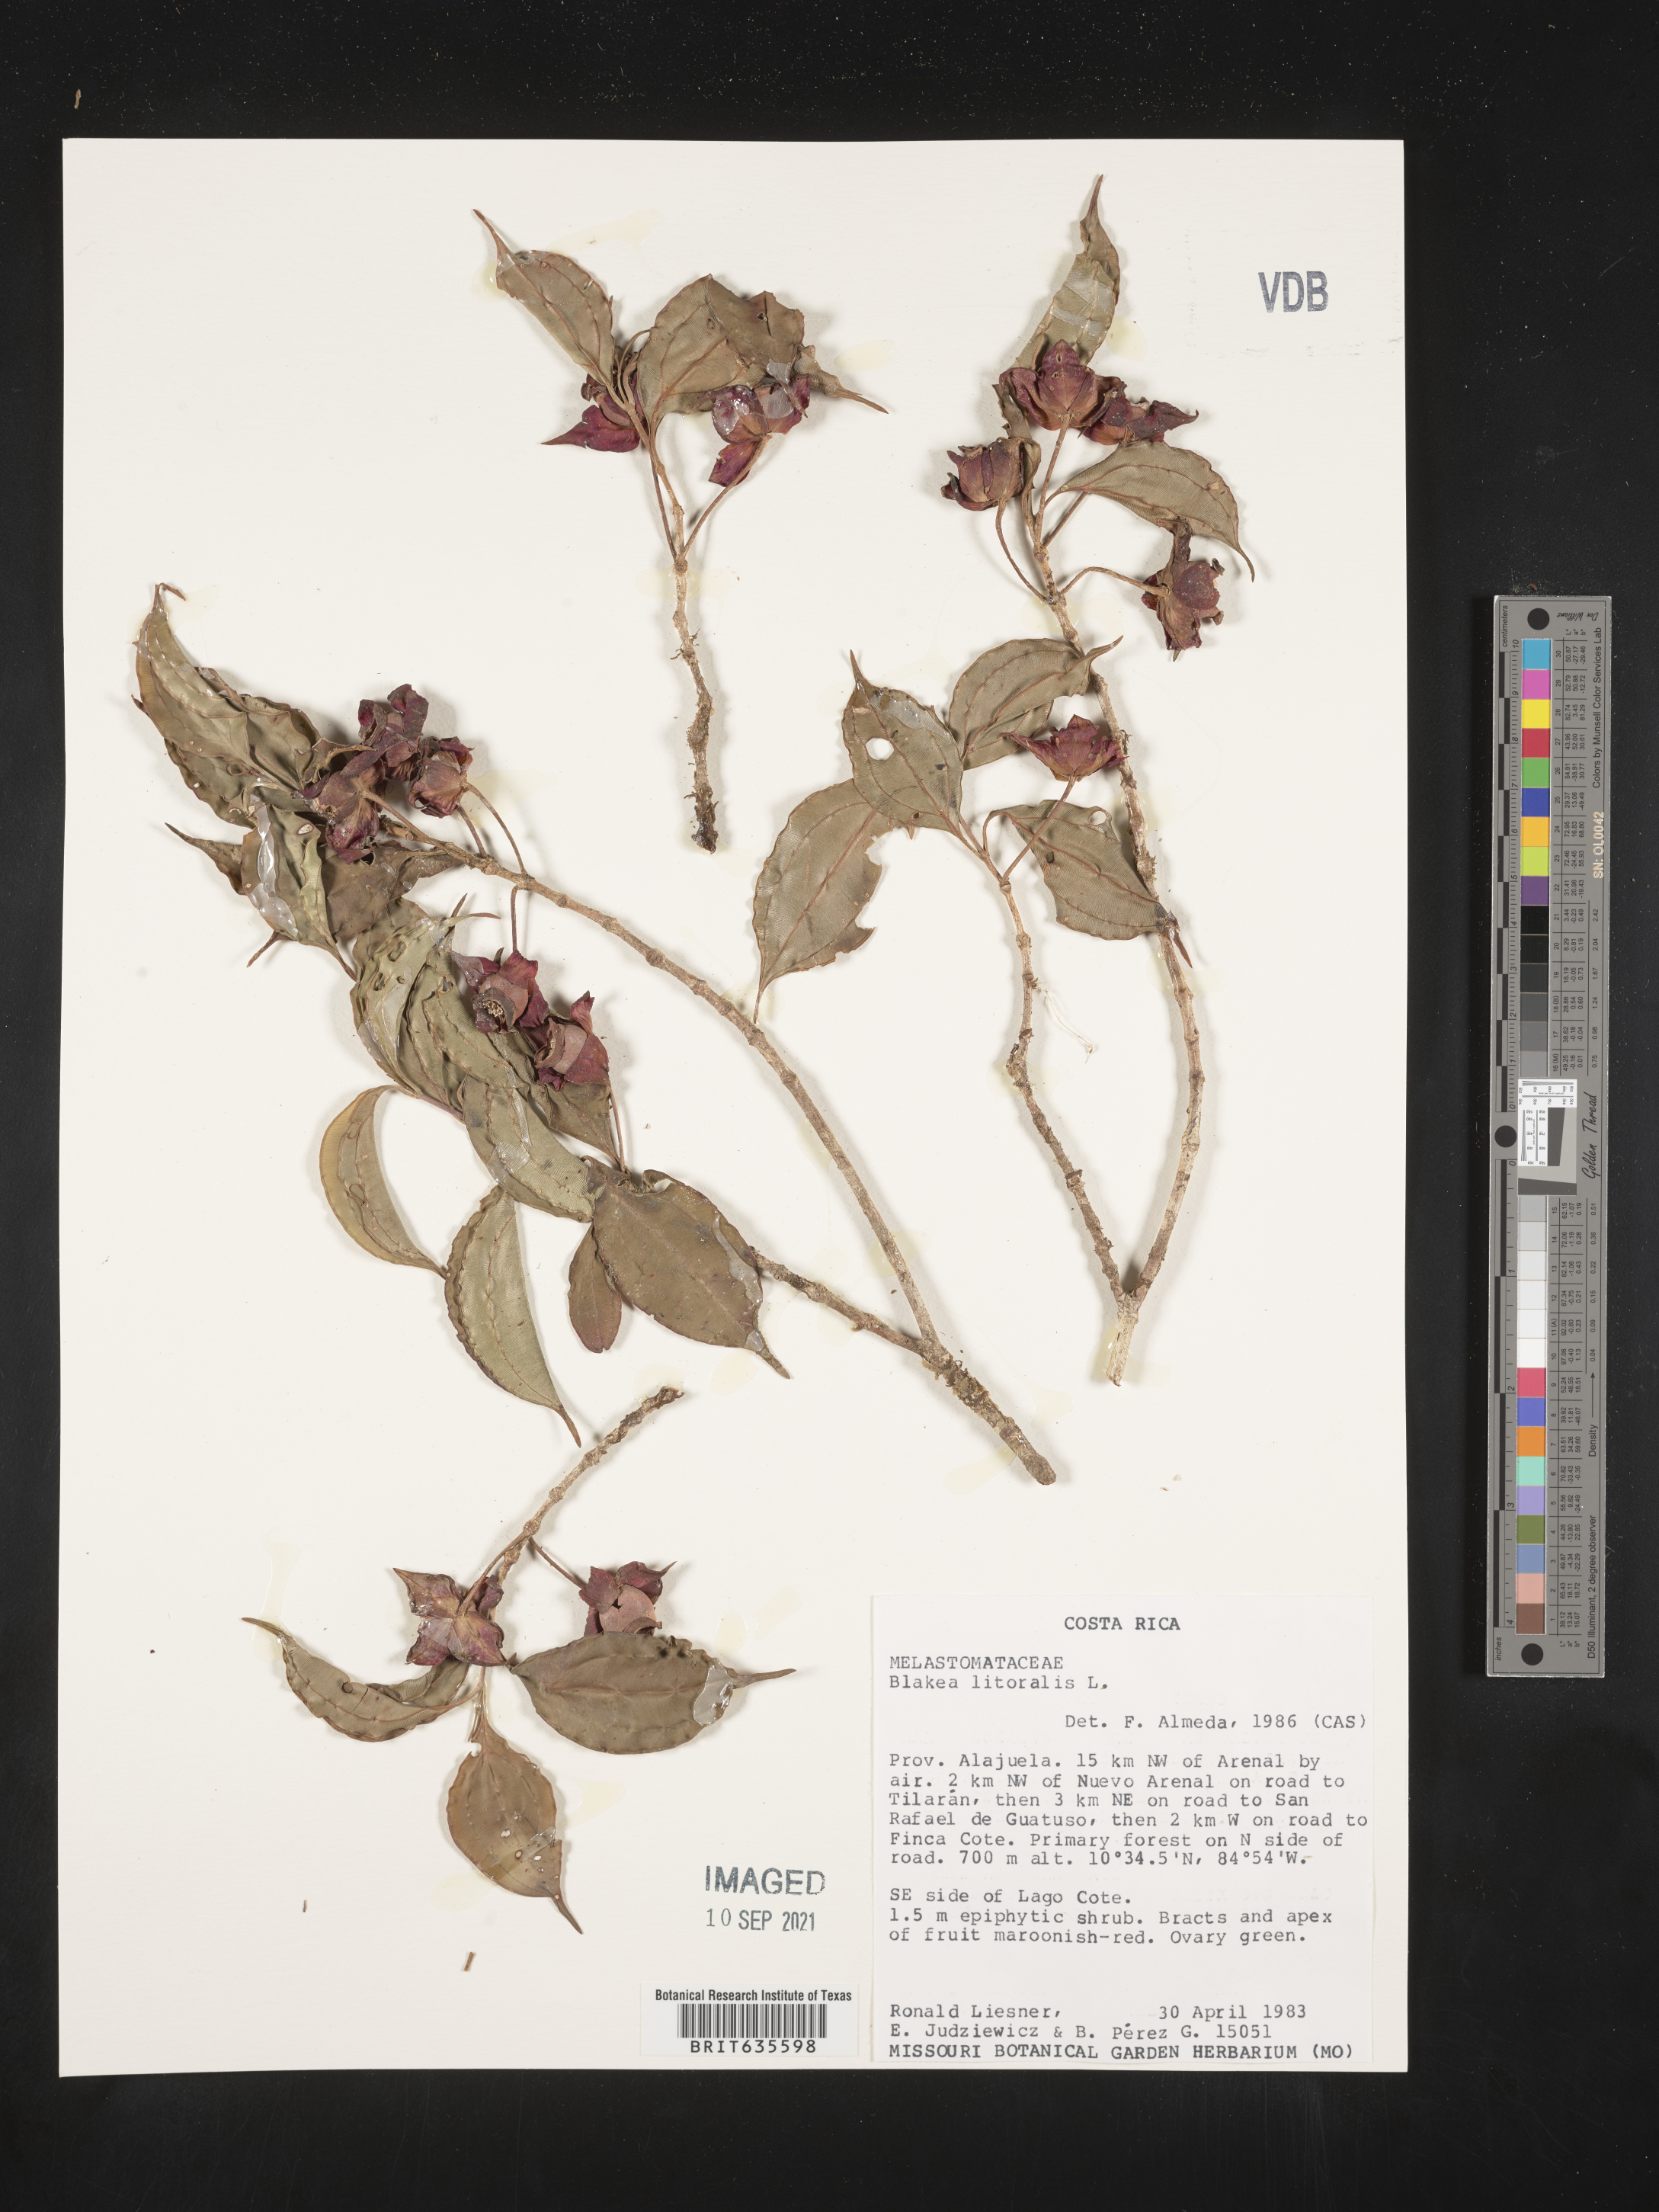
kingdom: Plantae
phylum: Tracheophyta
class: Magnoliopsida
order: Myrtales
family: Melastomataceae
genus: Blakea
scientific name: Blakea
